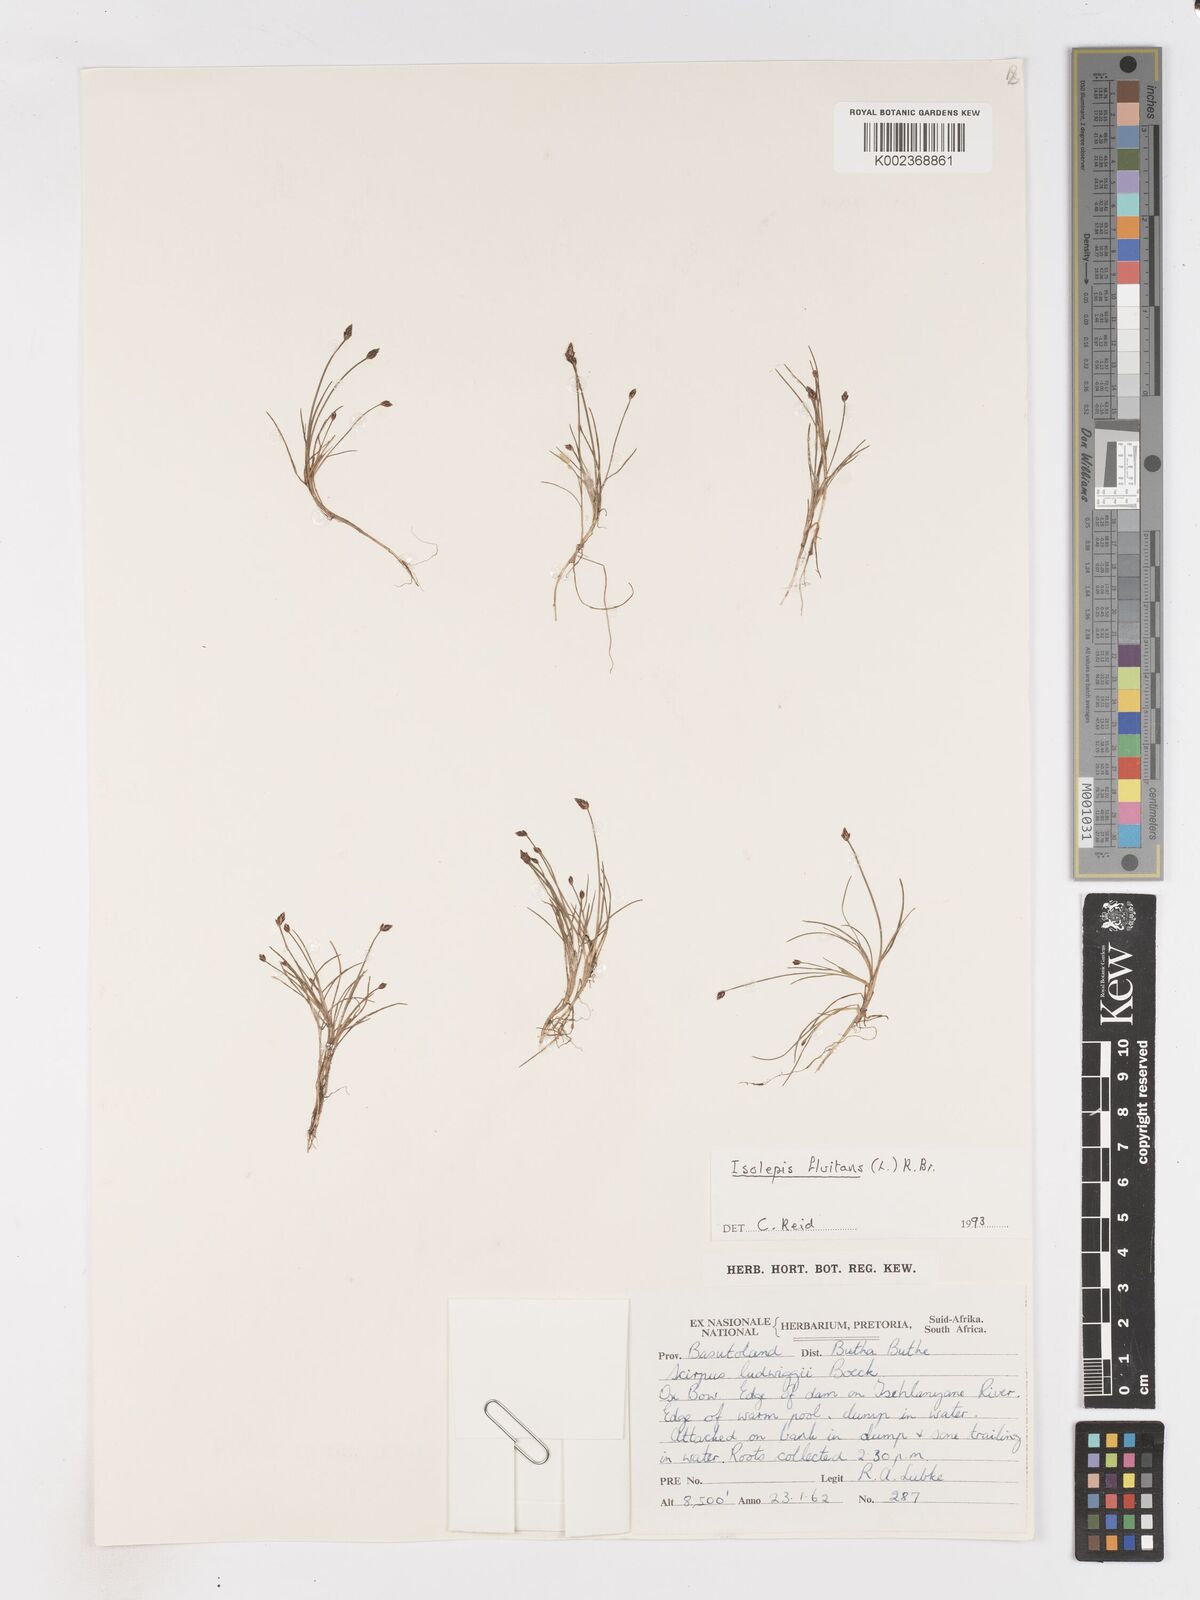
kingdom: Plantae
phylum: Tracheophyta
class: Liliopsida
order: Poales
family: Cyperaceae
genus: Isolepis
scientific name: Isolepis fluitans
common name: Floating club-rush
